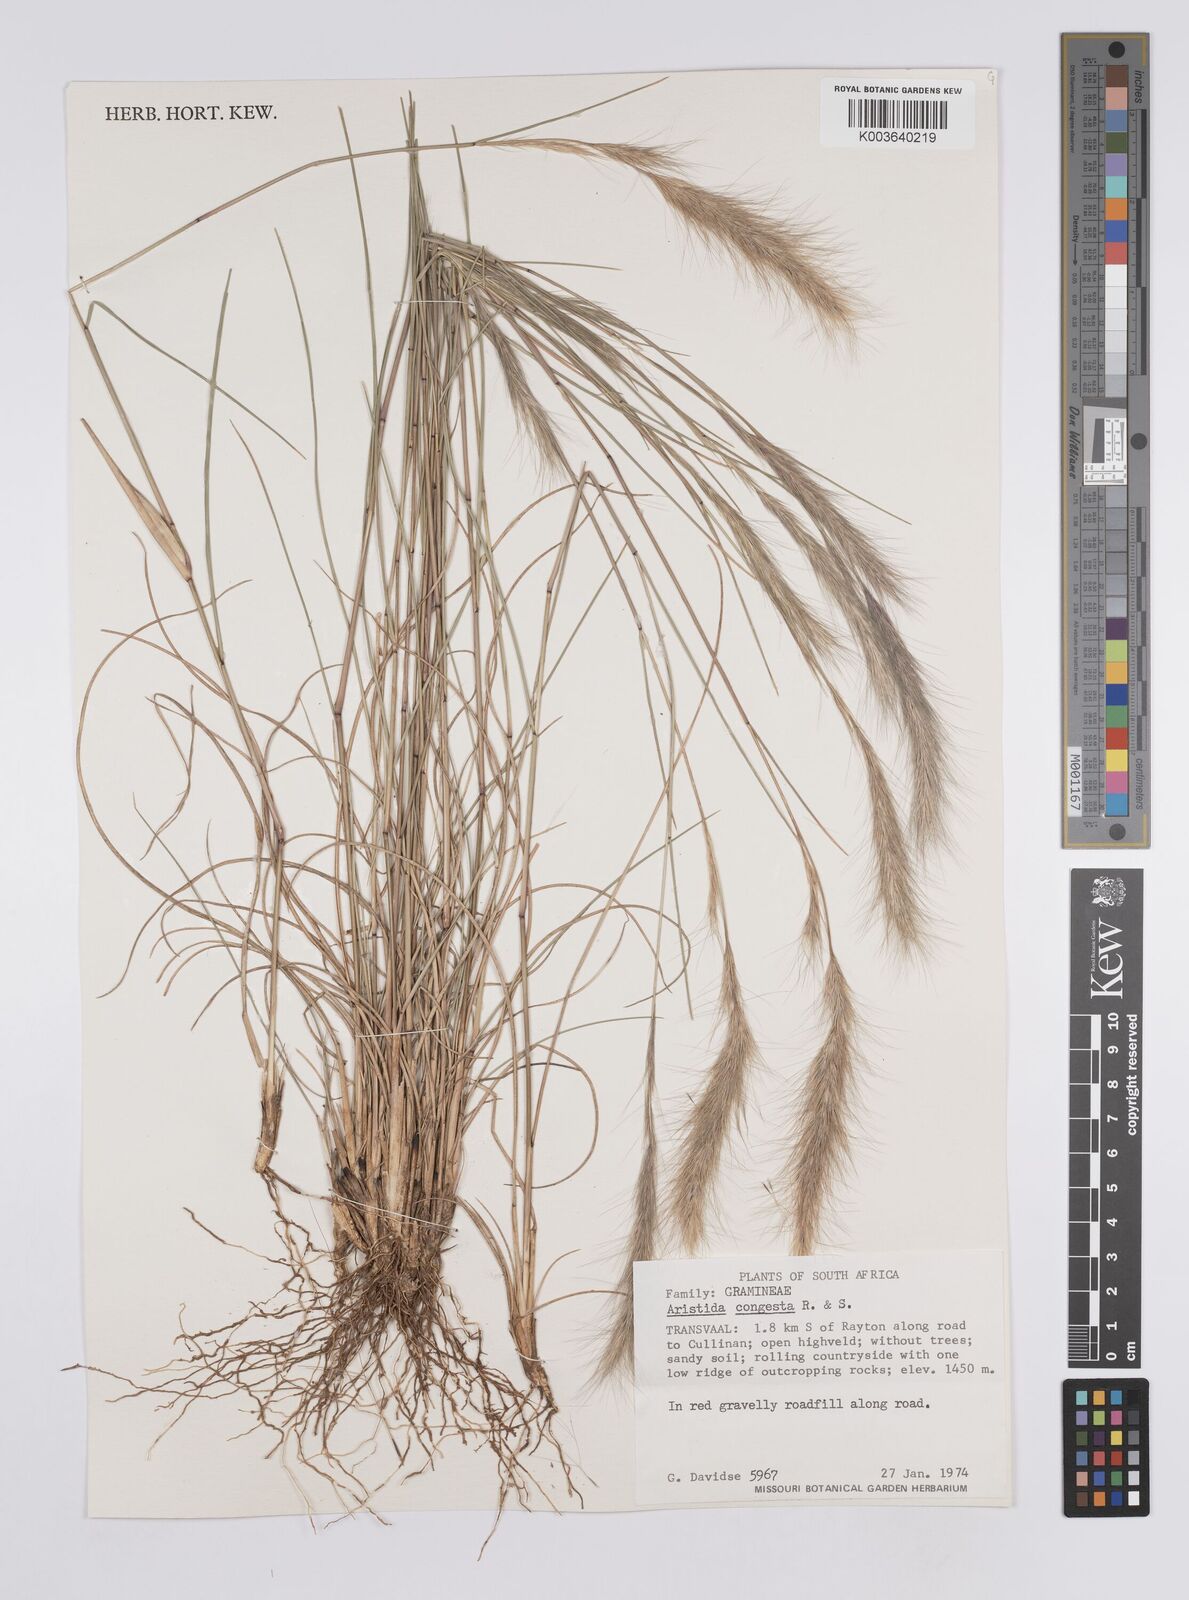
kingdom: Plantae
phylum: Tracheophyta
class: Liliopsida
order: Poales
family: Poaceae
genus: Aristida
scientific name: Aristida congesta
